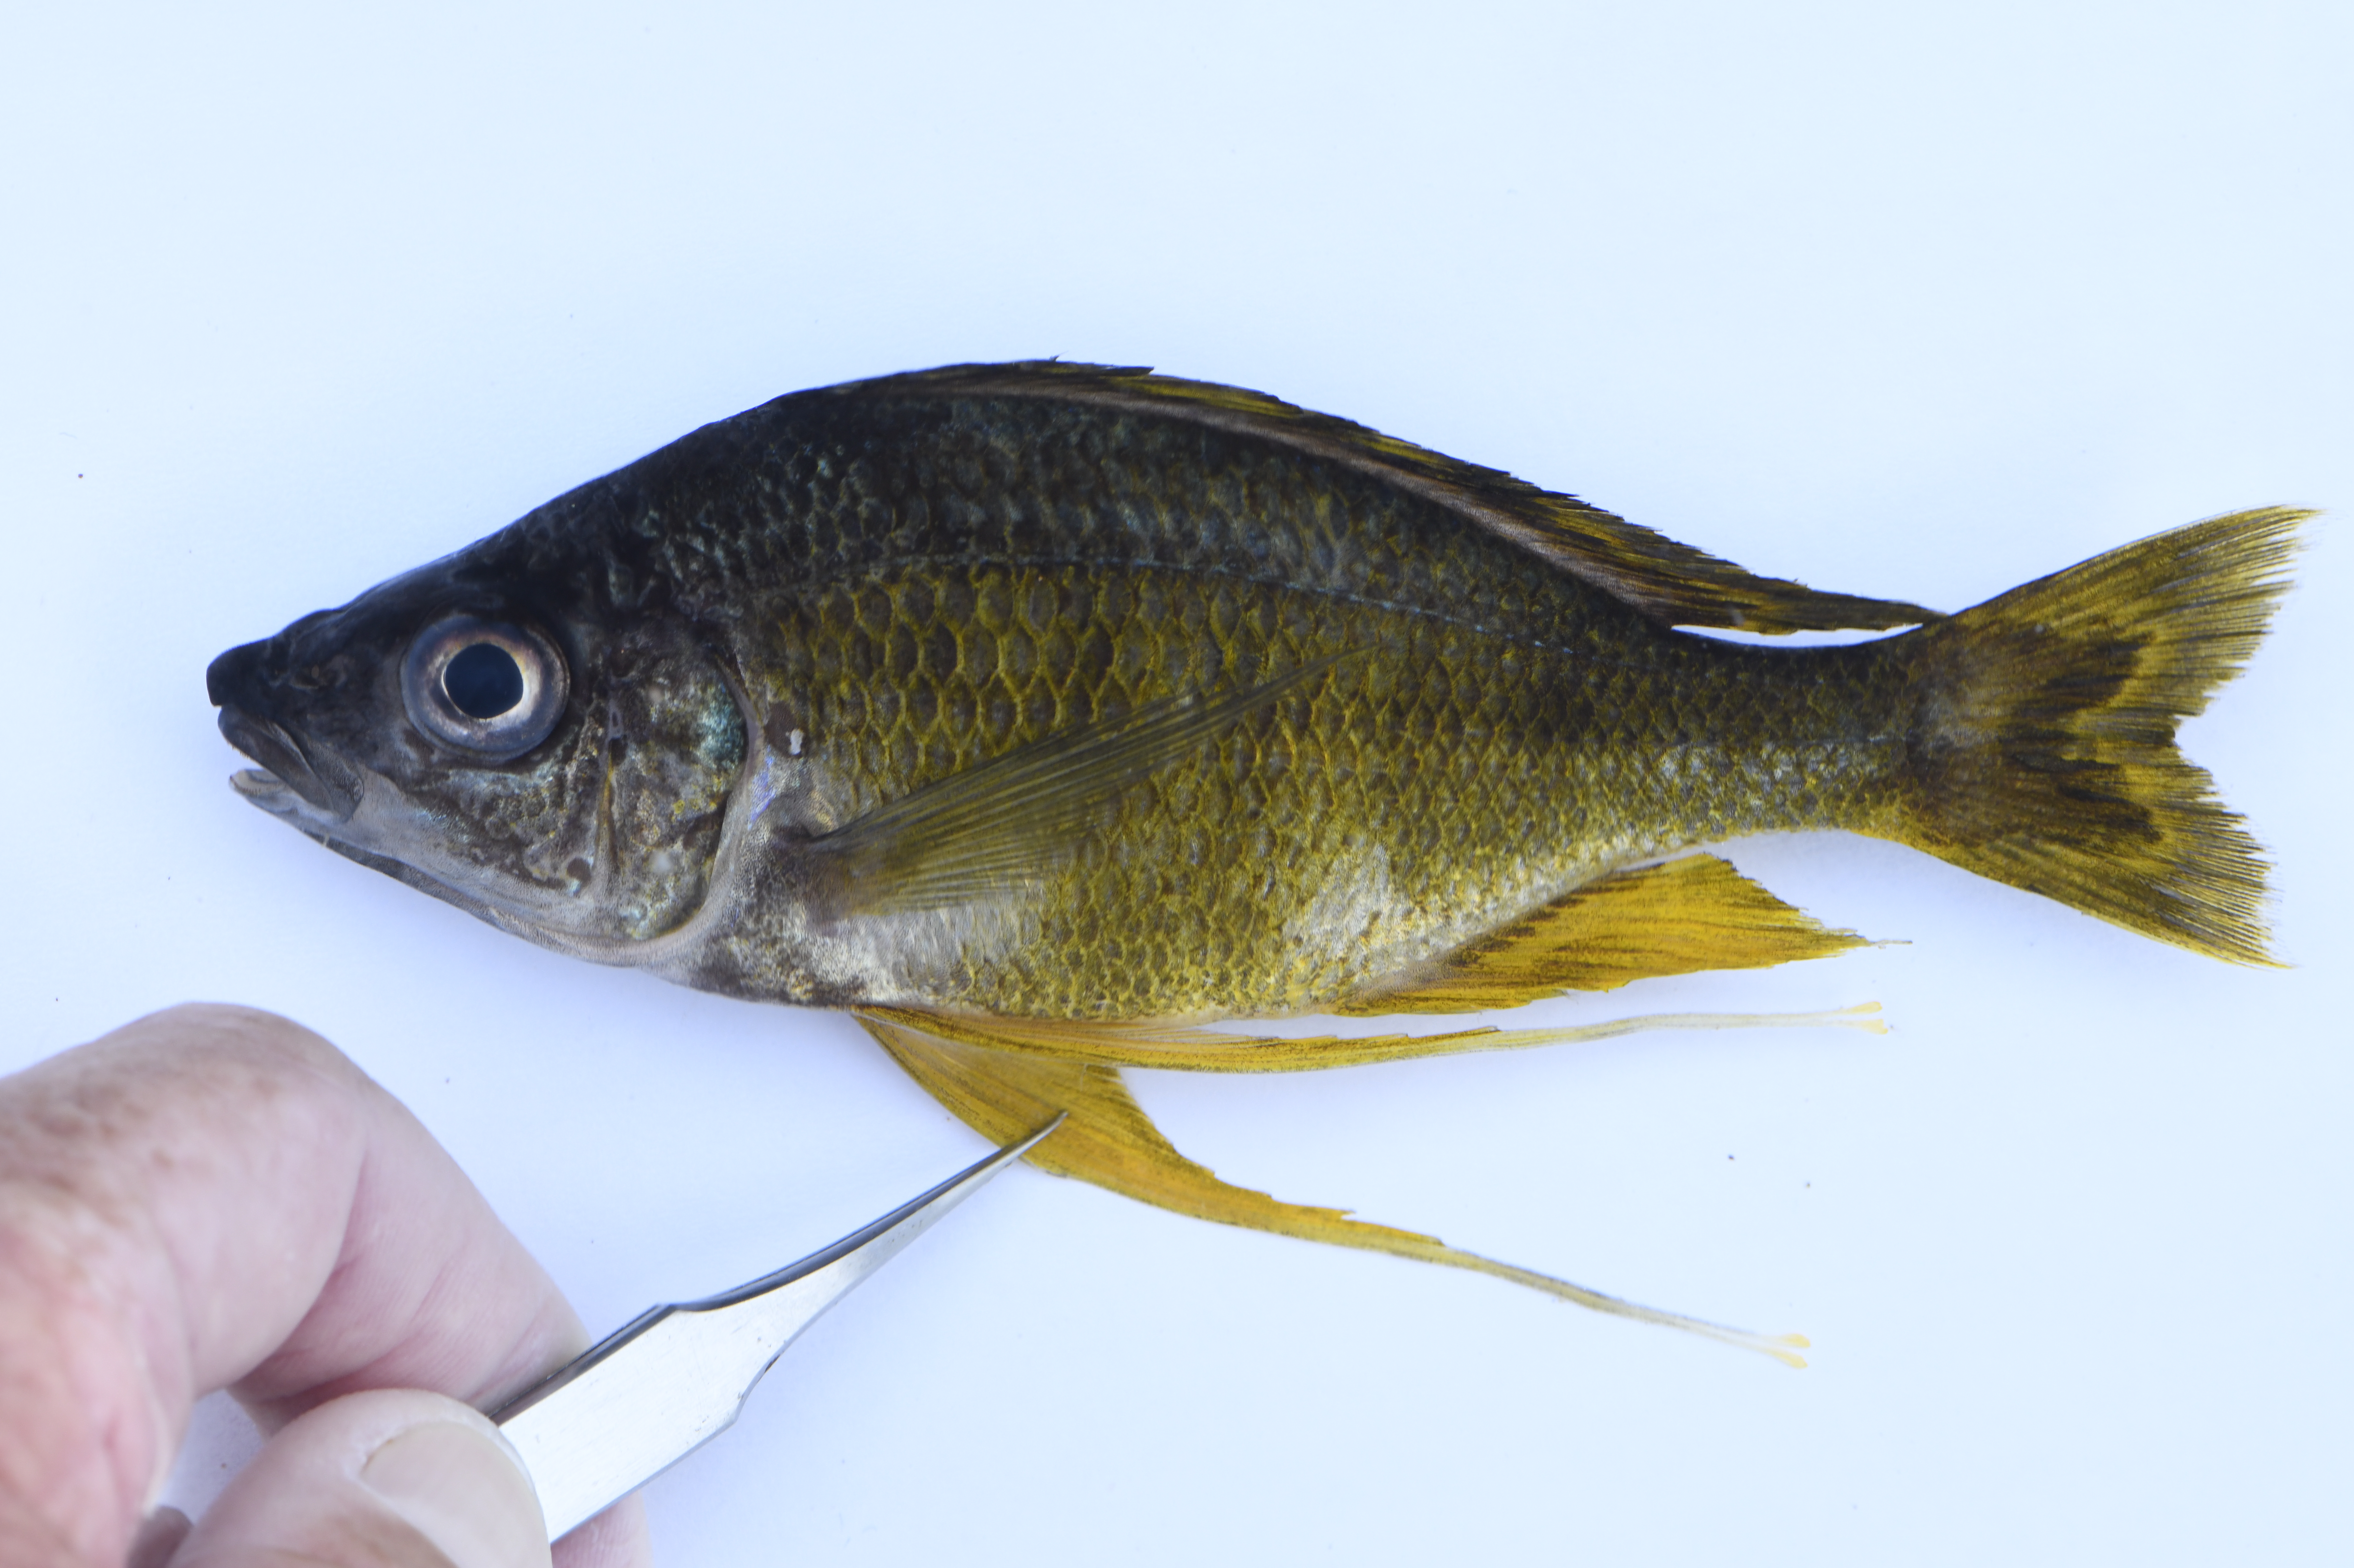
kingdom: Animalia
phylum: Chordata
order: Perciformes
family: Cichlidae
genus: Ophthalmotilapia
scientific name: Ophthalmotilapia nasuta
